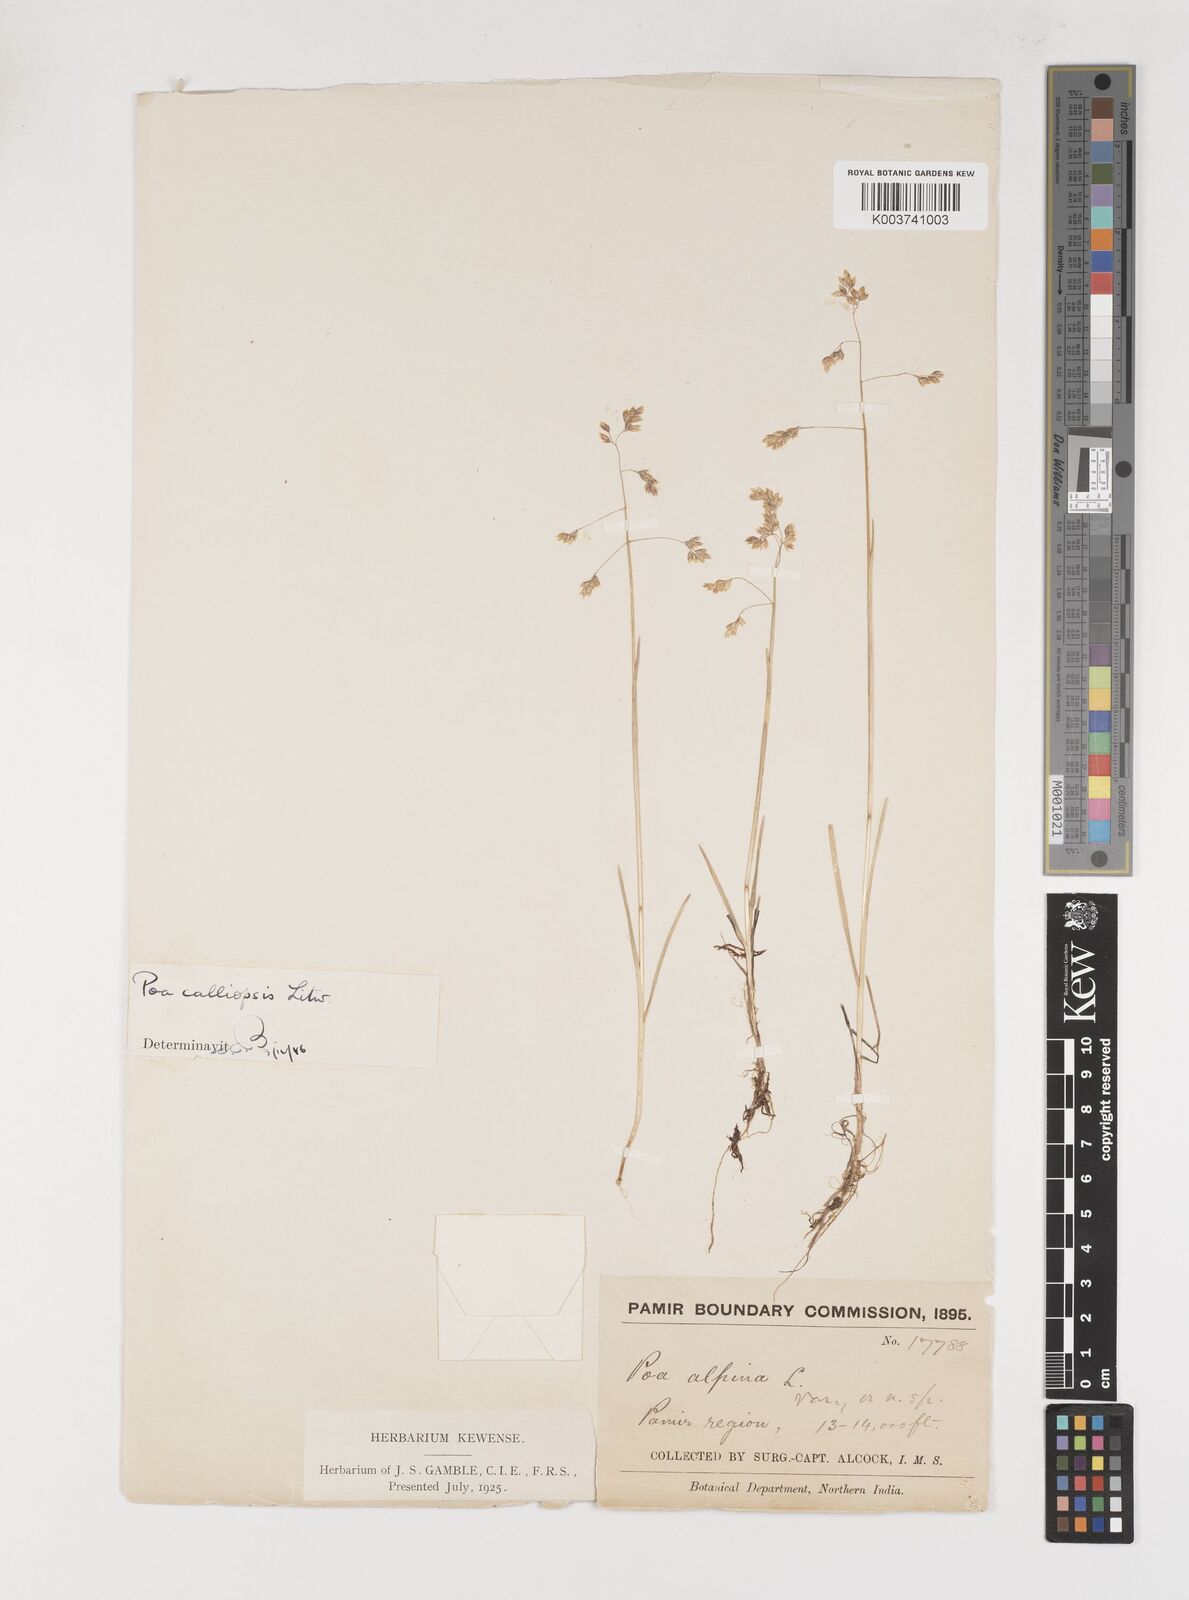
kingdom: Plantae
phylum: Tracheophyta
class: Liliopsida
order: Poales
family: Poaceae
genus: Poa
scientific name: Poa calliopsis
